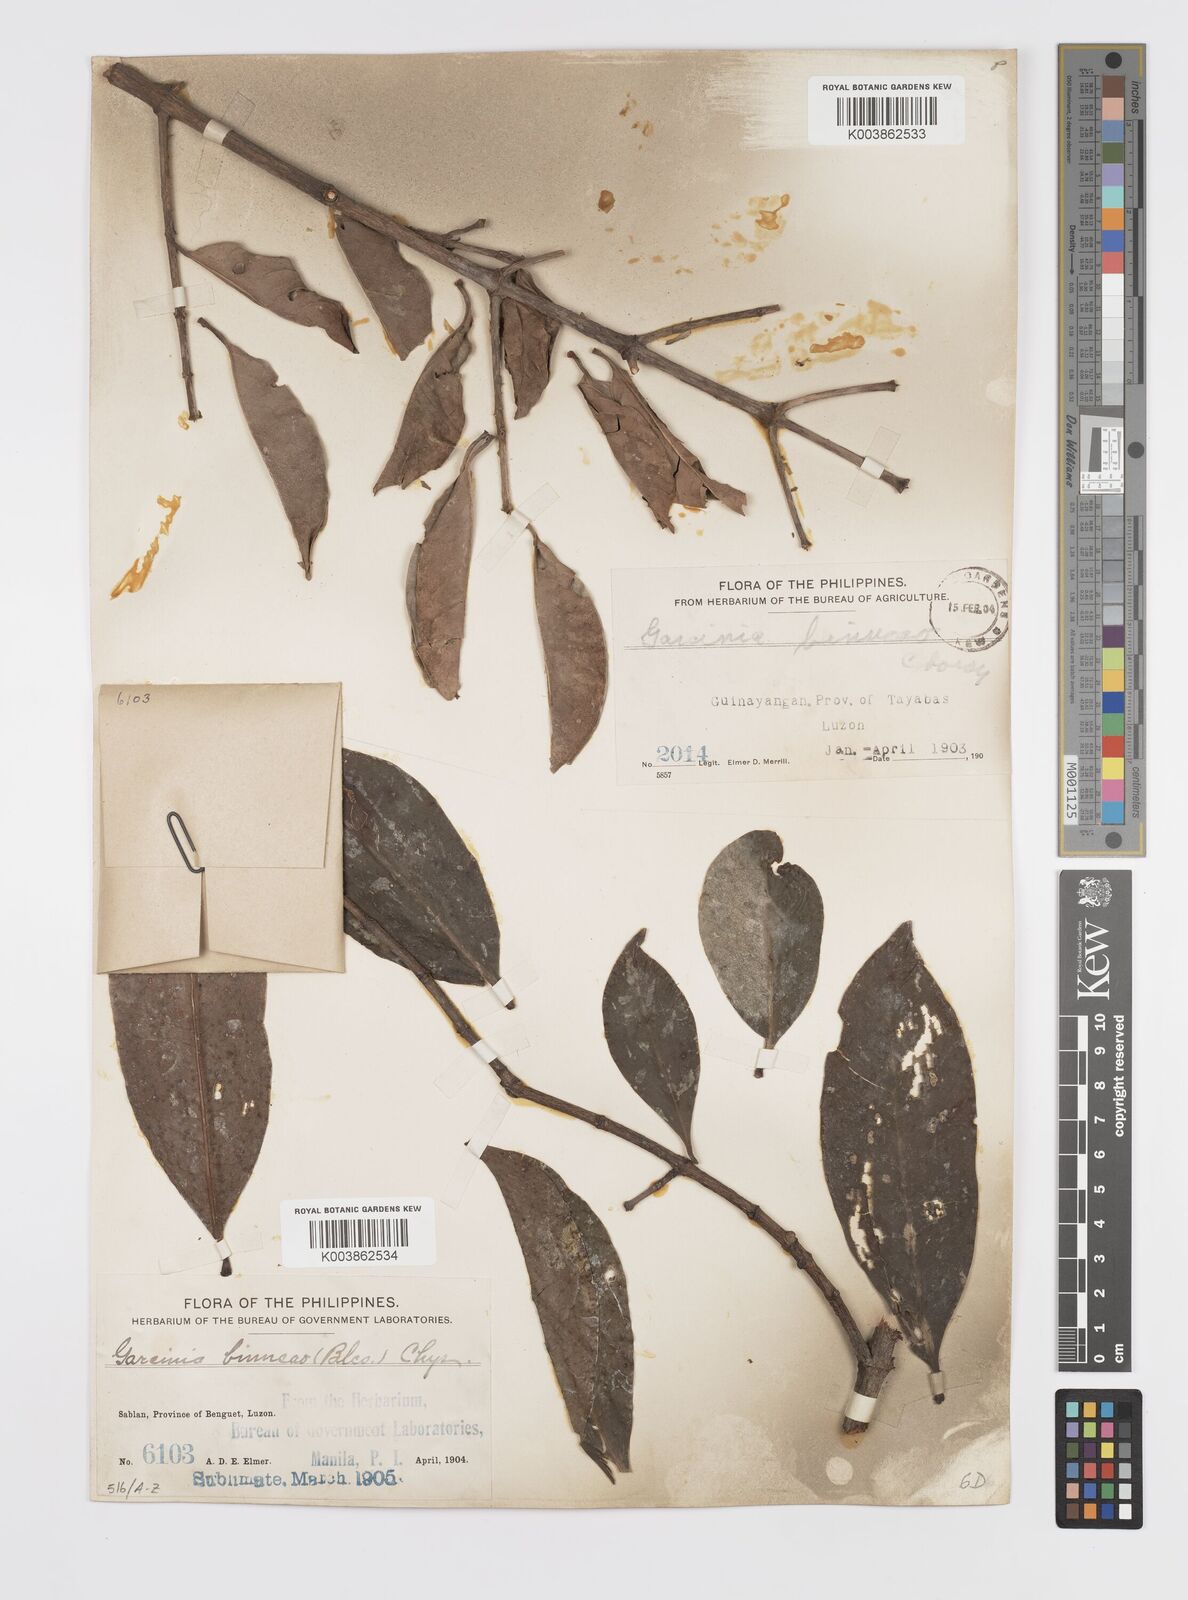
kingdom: Plantae
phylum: Tracheophyta
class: Magnoliopsida
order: Malpighiales
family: Clusiaceae
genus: Garcinia
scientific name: Garcinia binucao
